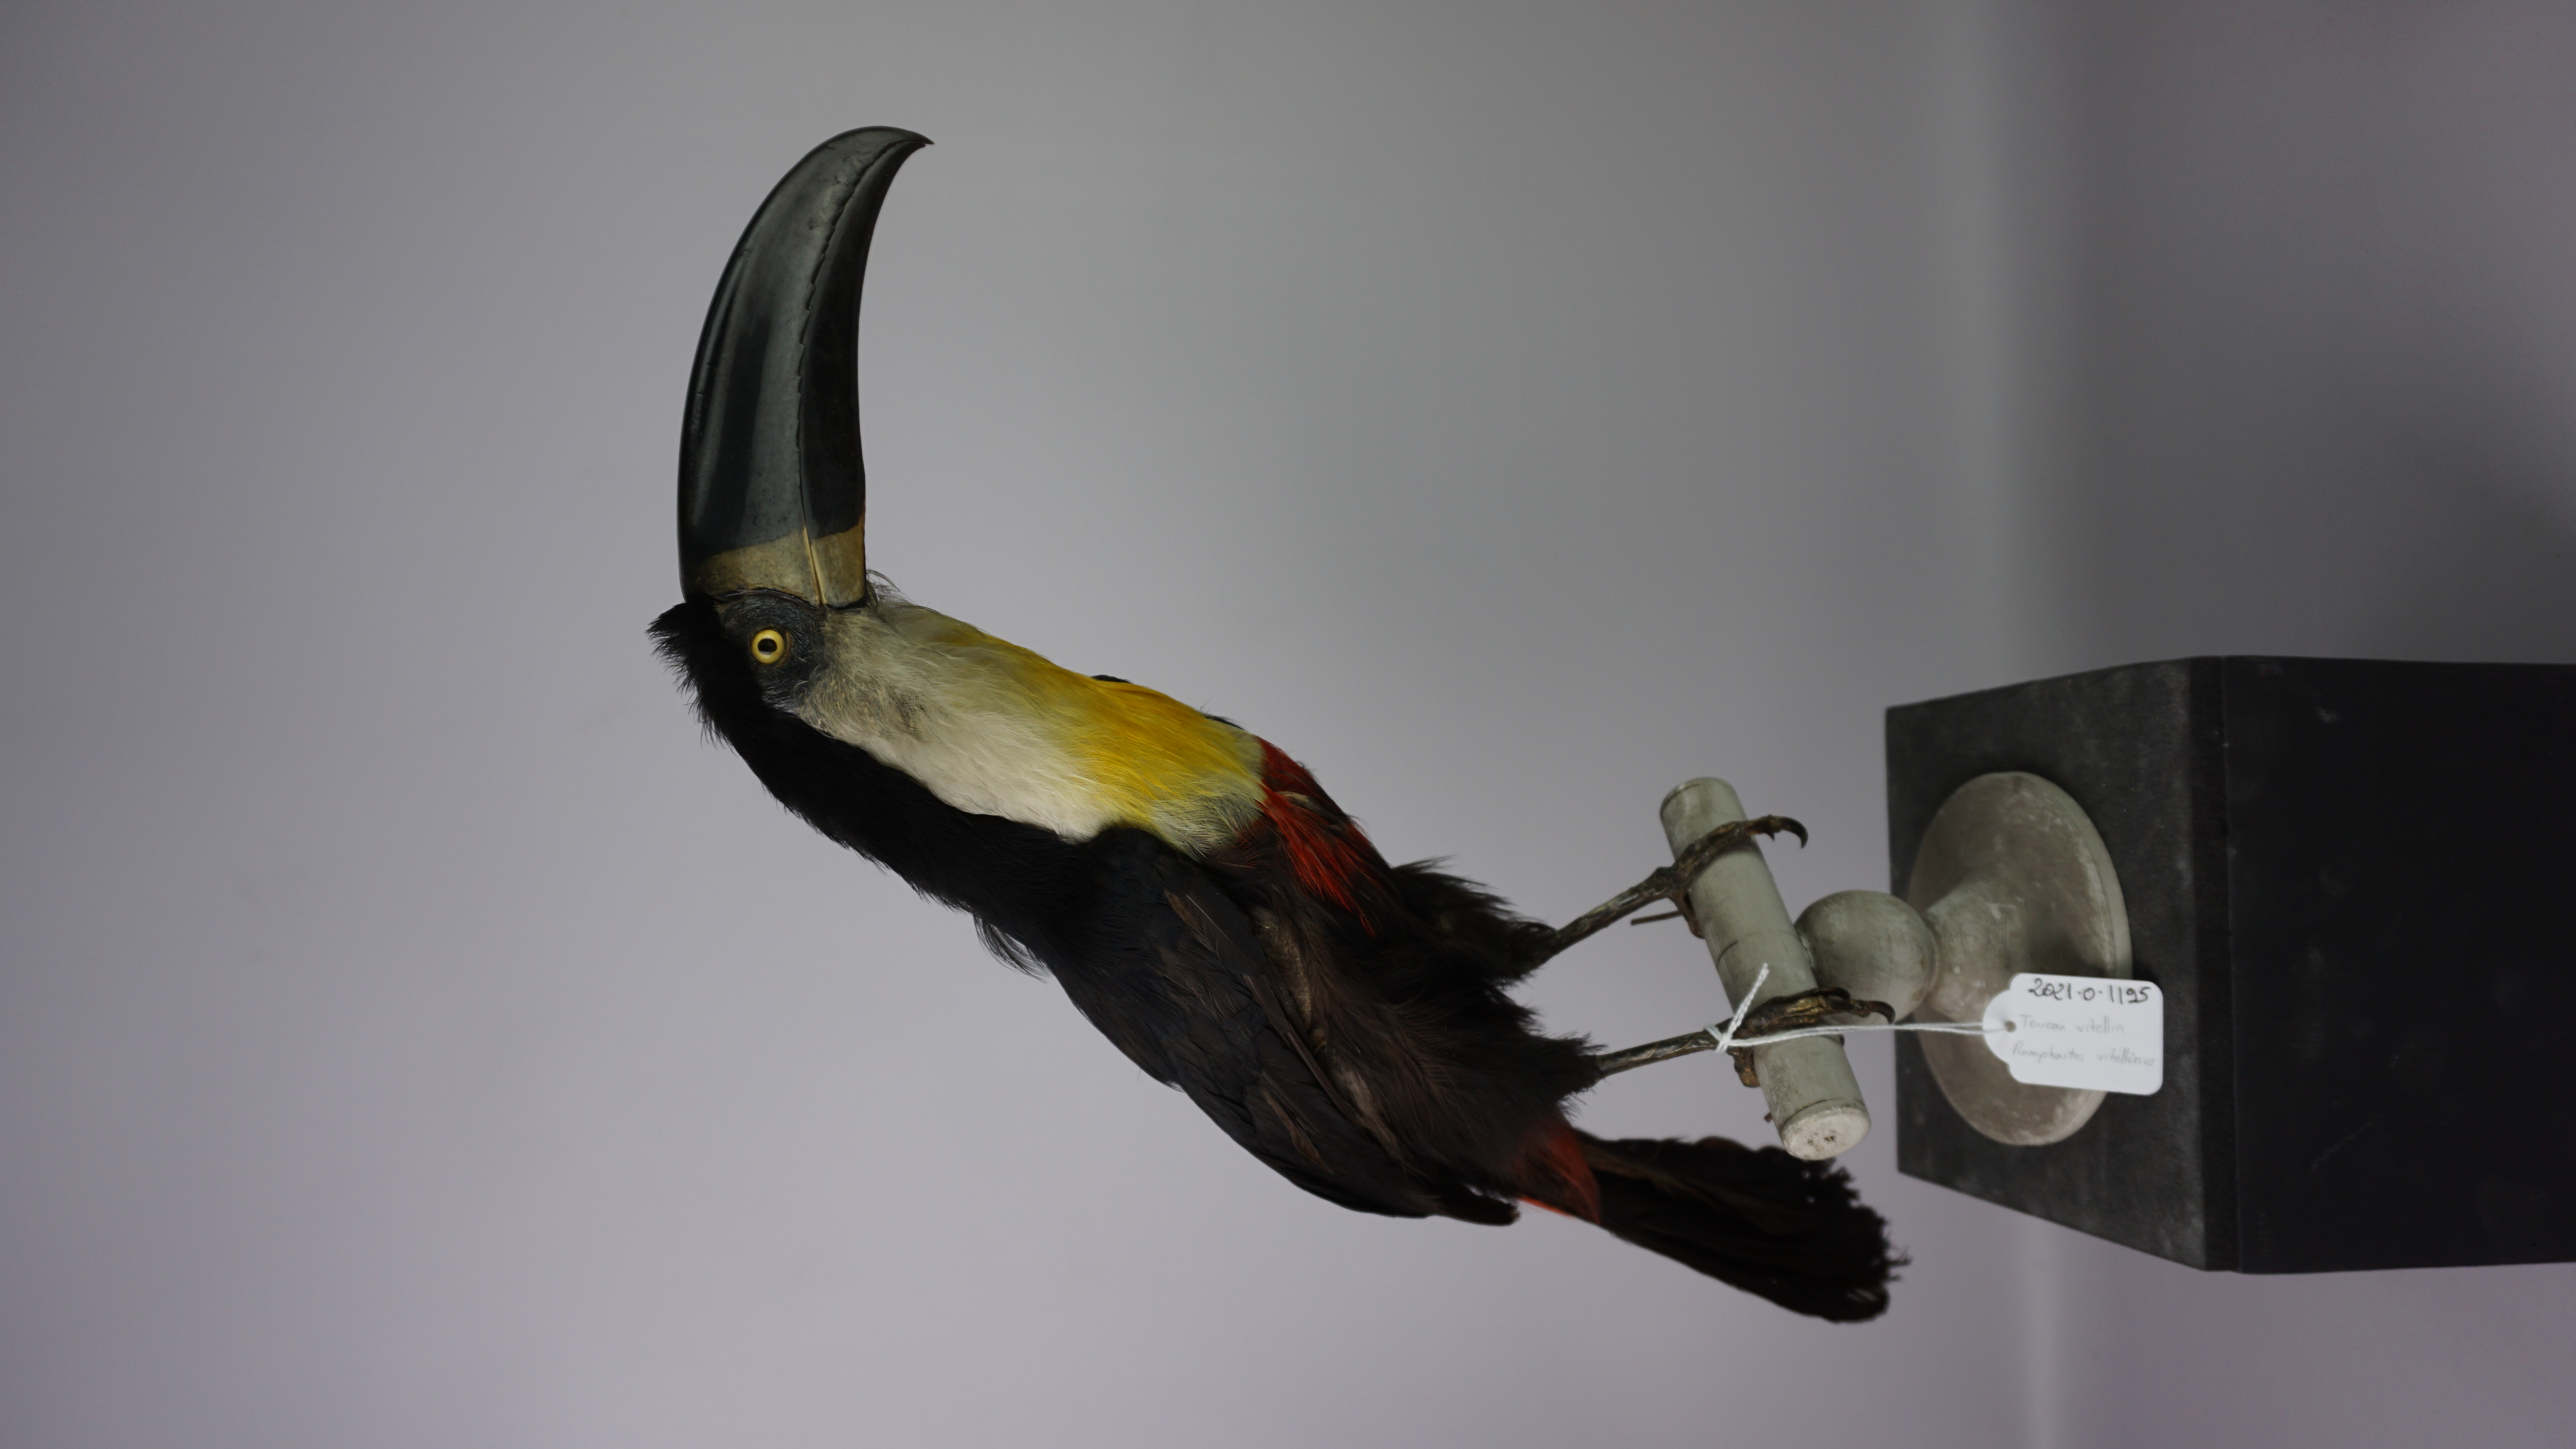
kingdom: Animalia
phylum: Chordata
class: Aves
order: Piciformes
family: Ramphastidae
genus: Ramphastos
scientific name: Ramphastos vitellinus
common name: Channel-billed toucan
